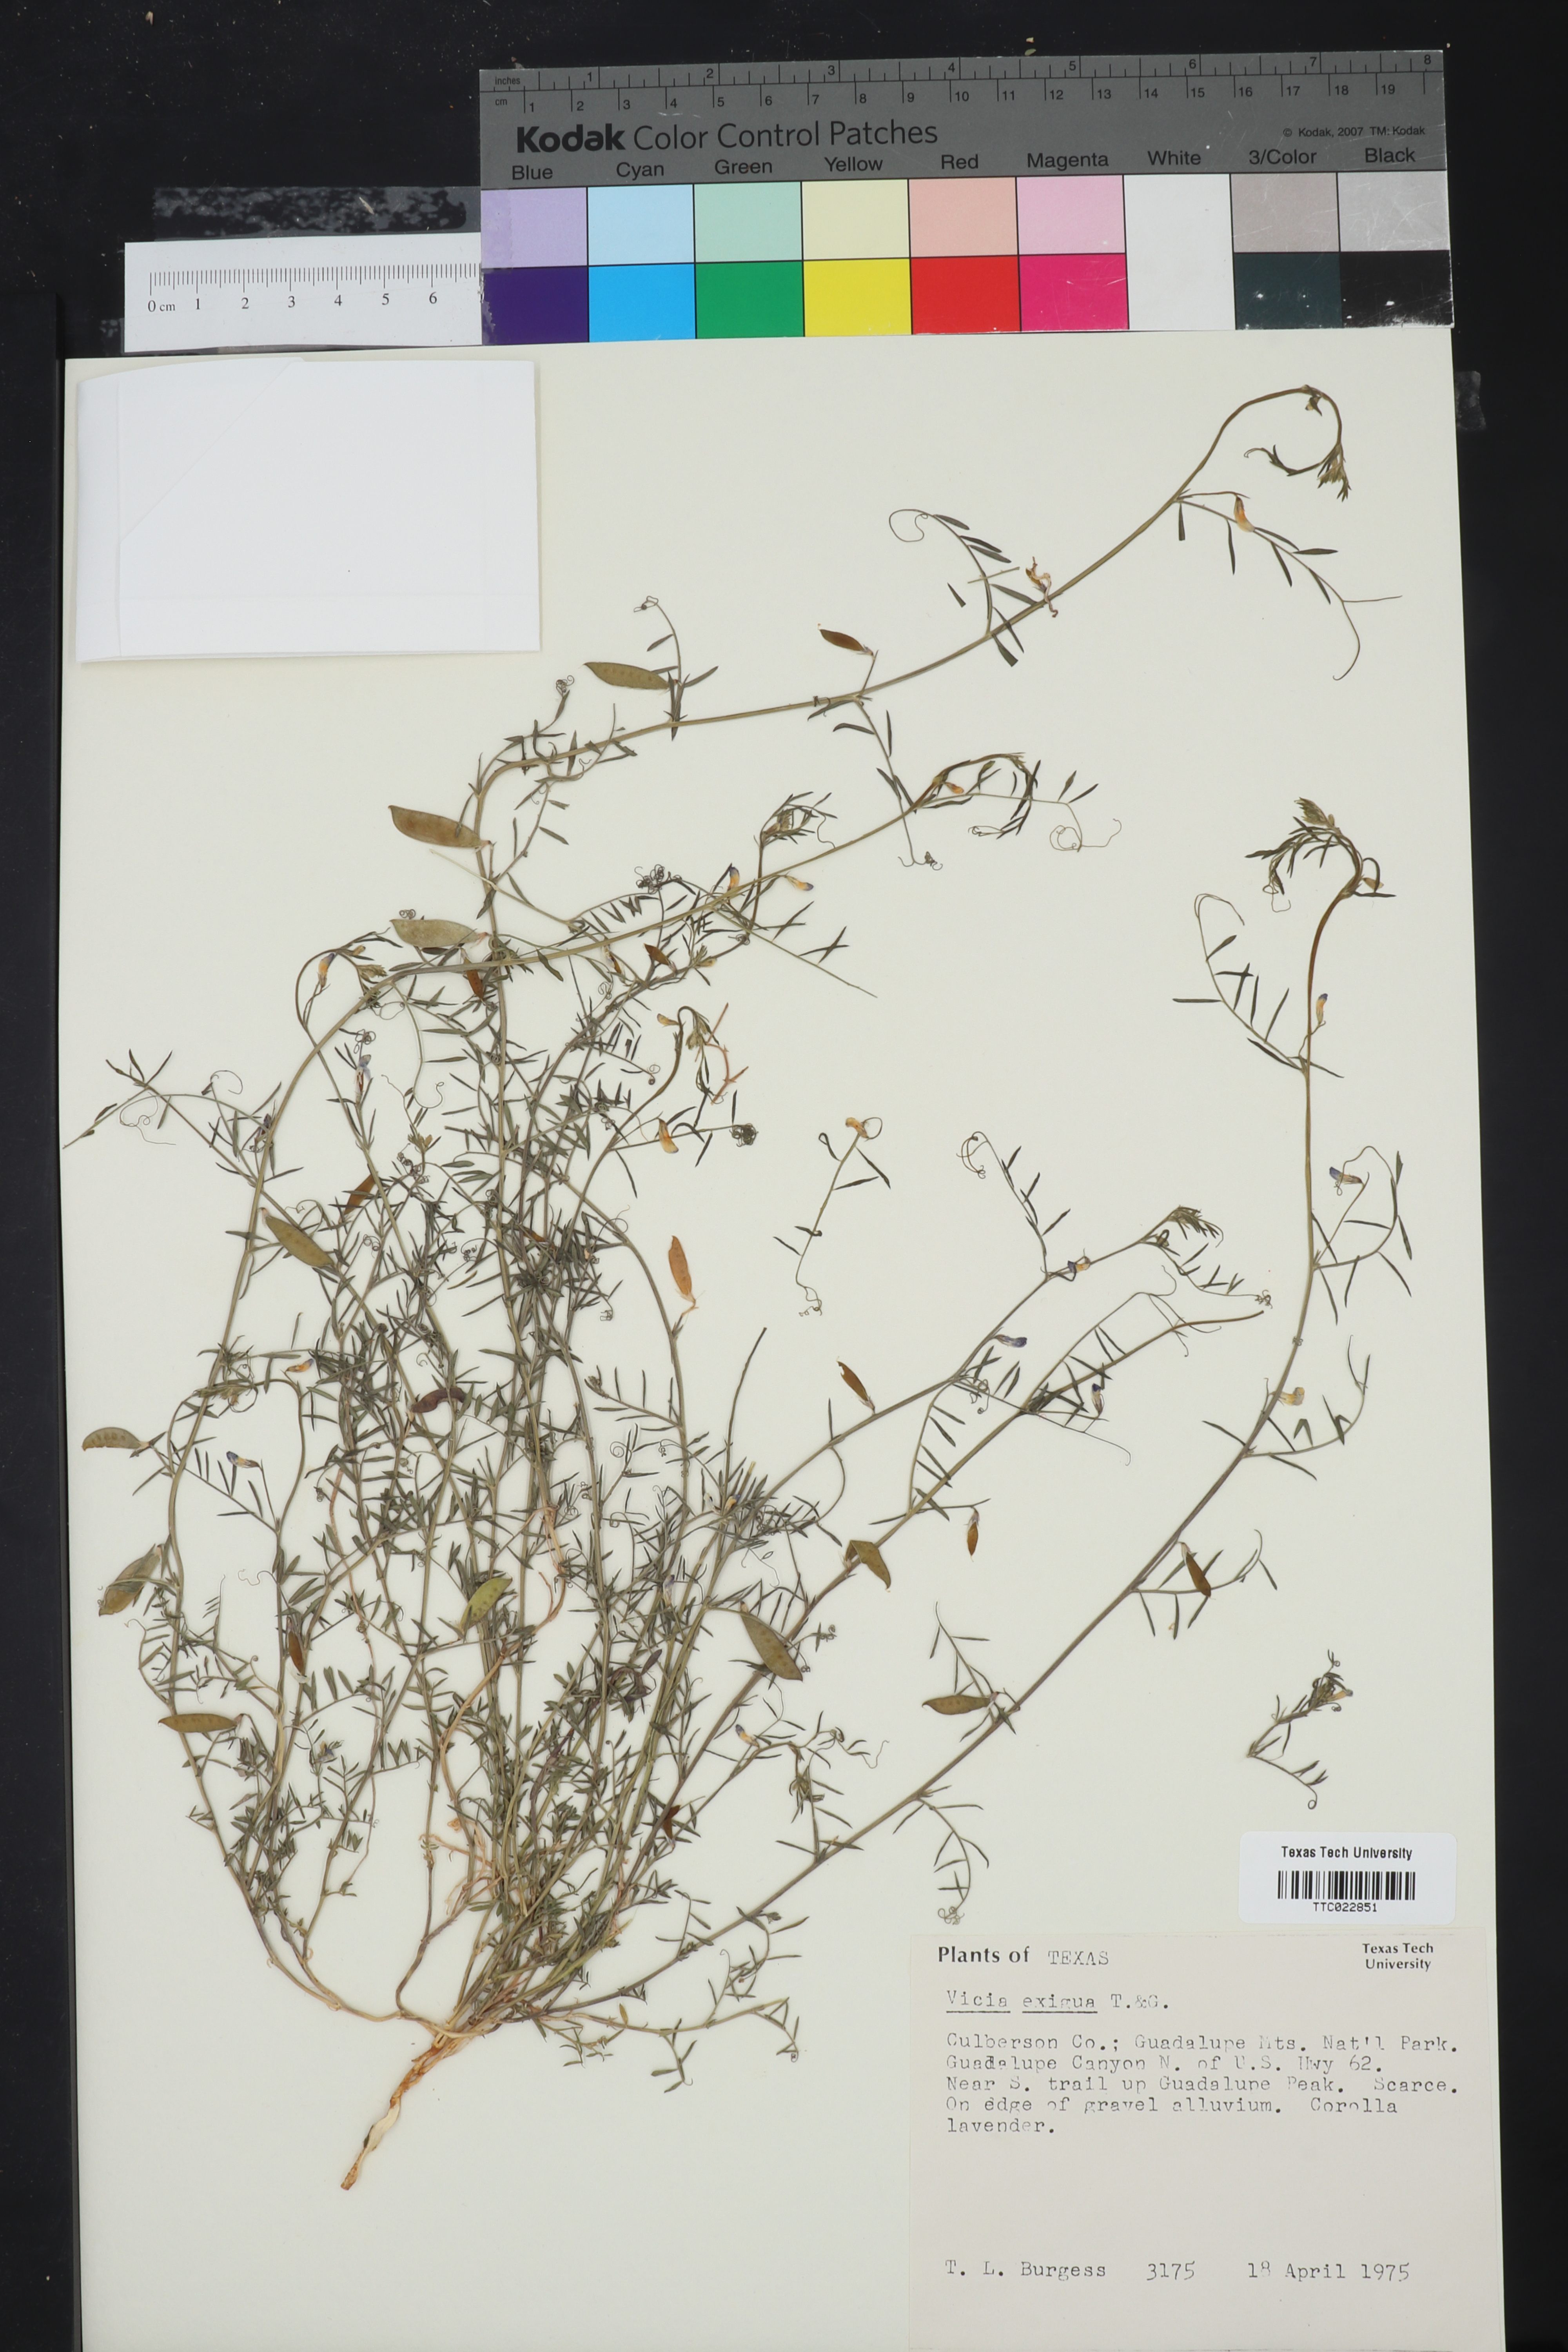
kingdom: Plantae
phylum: Tracheophyta
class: Magnoliopsida
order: Fabales
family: Fabaceae
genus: Vicia
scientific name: Vicia ludoviciana
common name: Louisiana vetch
